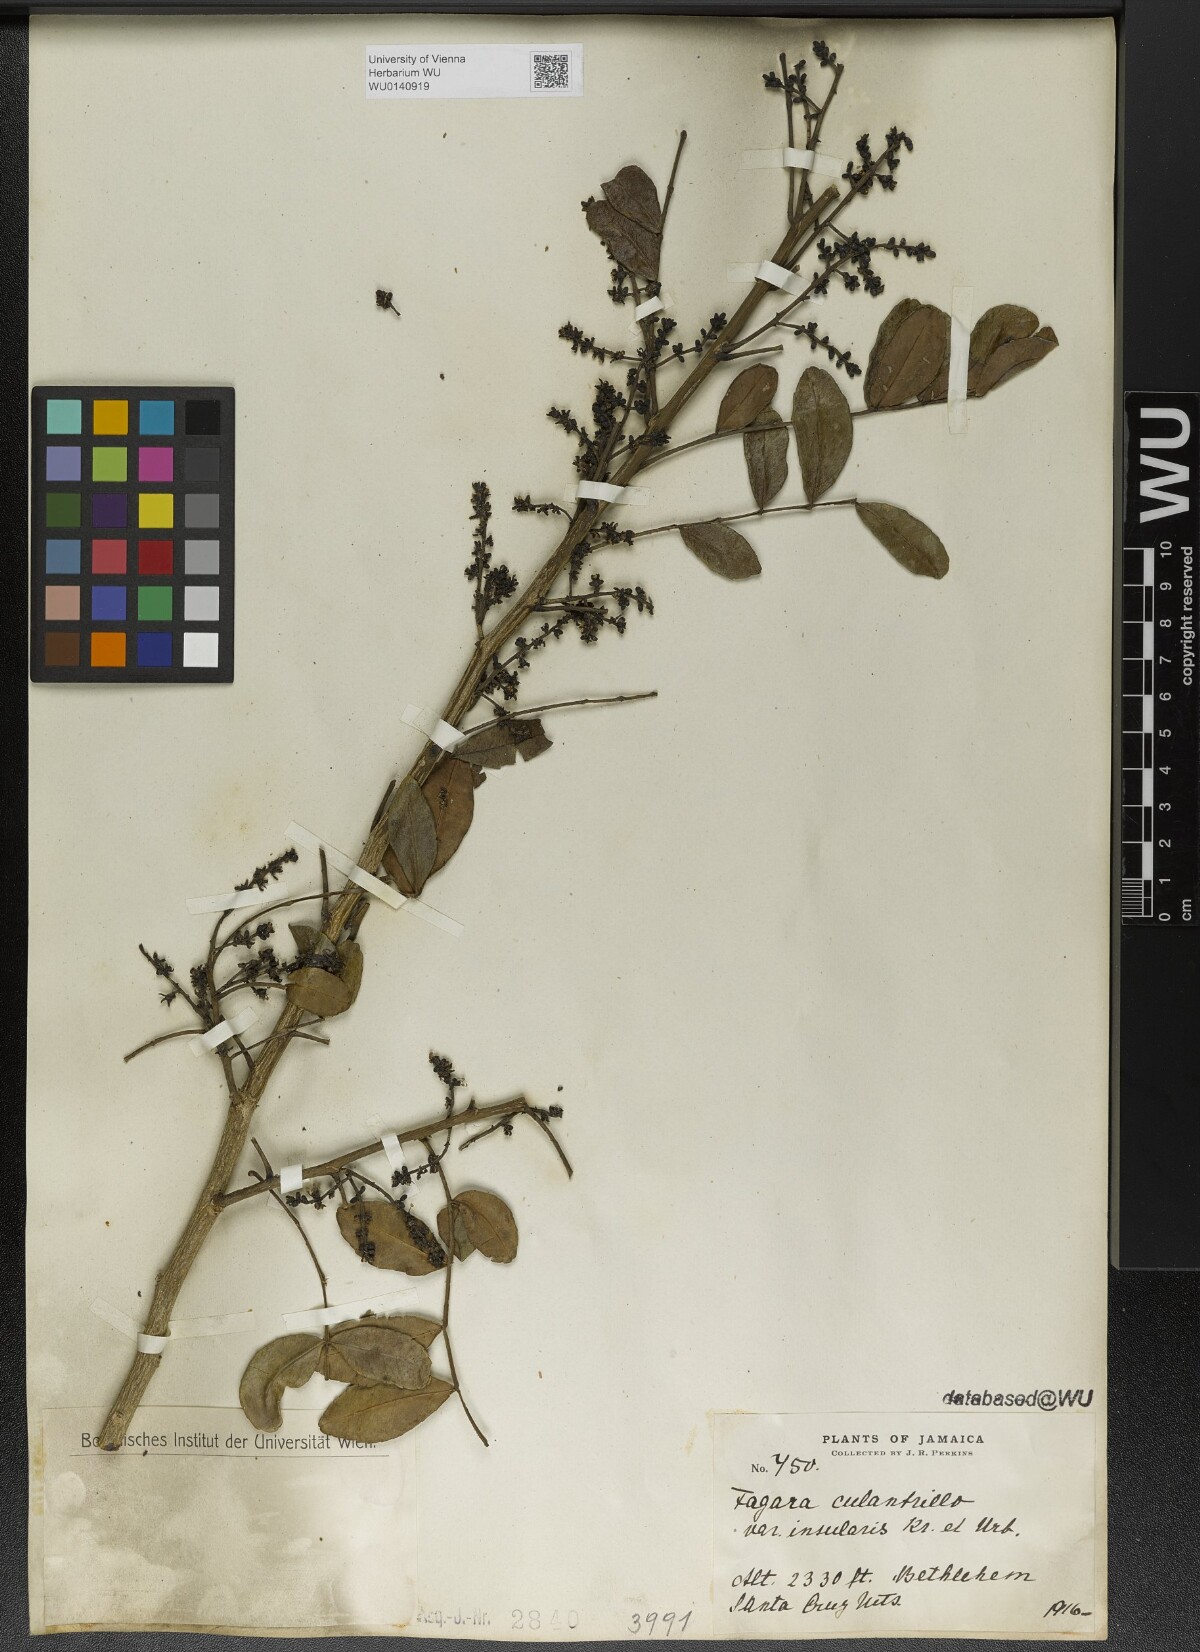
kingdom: Plantae
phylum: Tracheophyta
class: Magnoliopsida
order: Sapindales
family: Rutaceae
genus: Zanthoxylum
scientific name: Zanthoxylum fagara
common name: Lime prickly-ash
